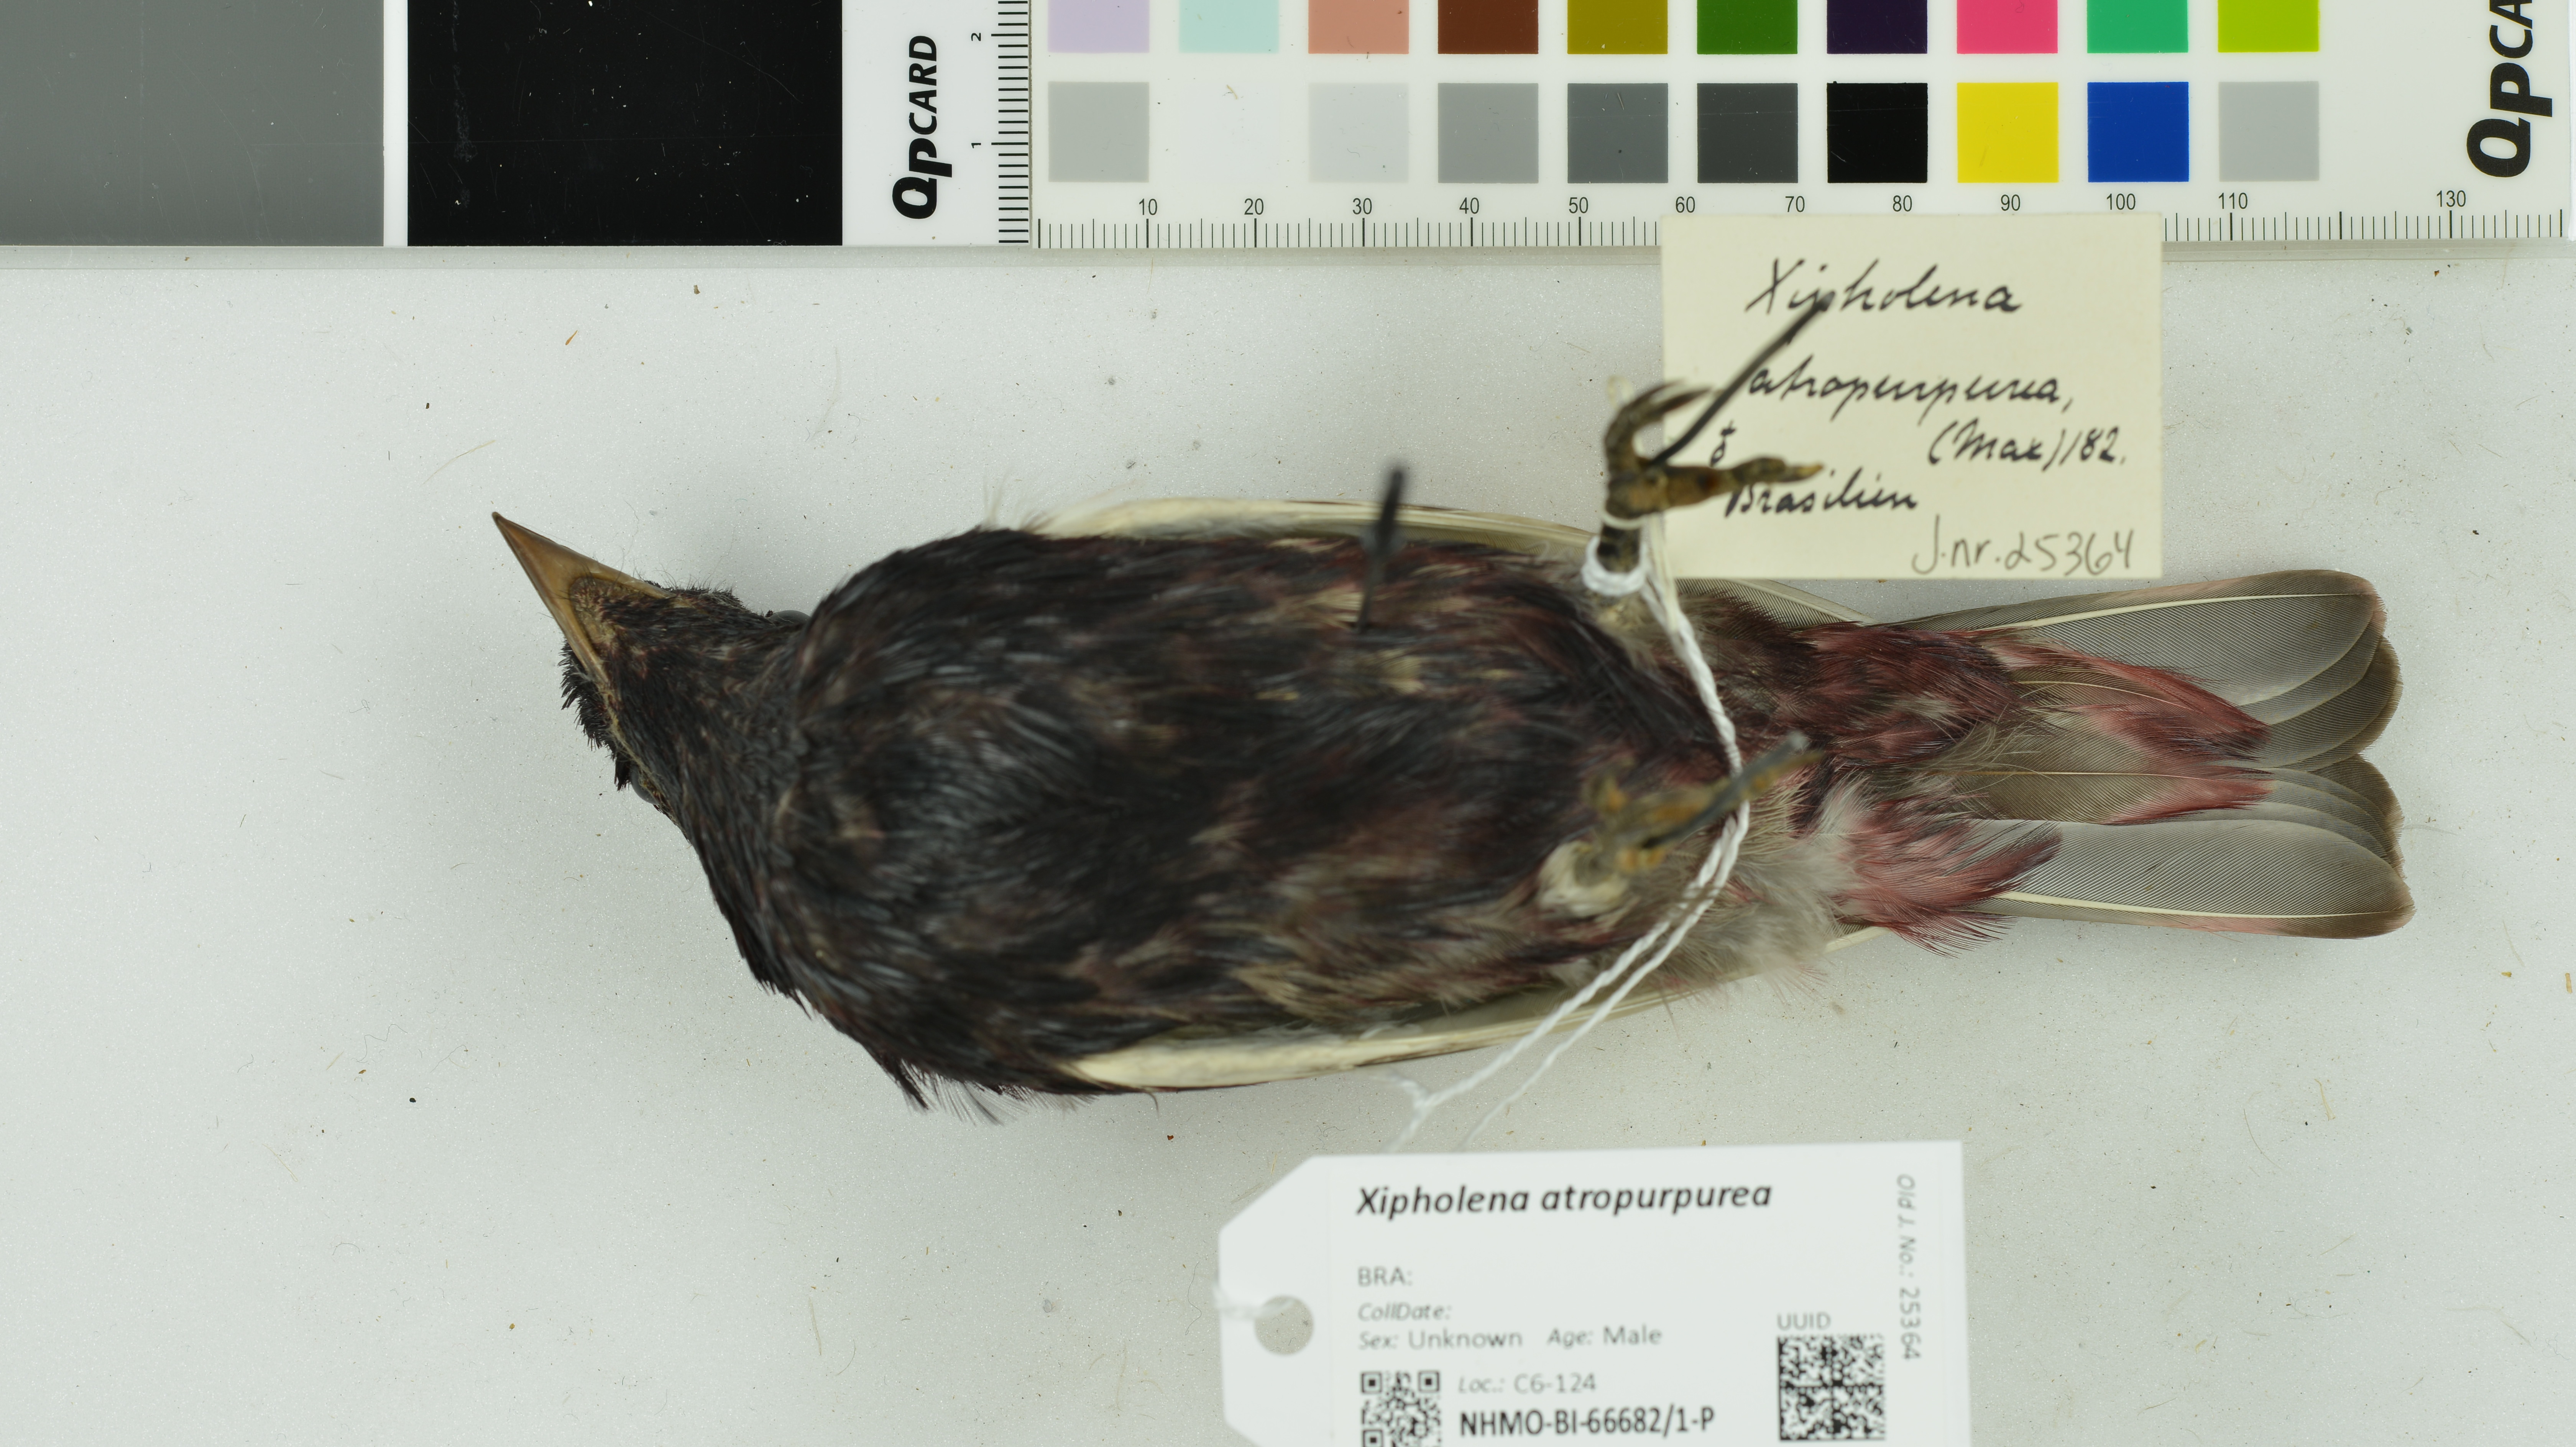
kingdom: Animalia
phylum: Chordata
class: Aves
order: Passeriformes
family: Cotingidae
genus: Xipholena
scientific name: Xipholena atropurpurea
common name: White-winged cotinga
